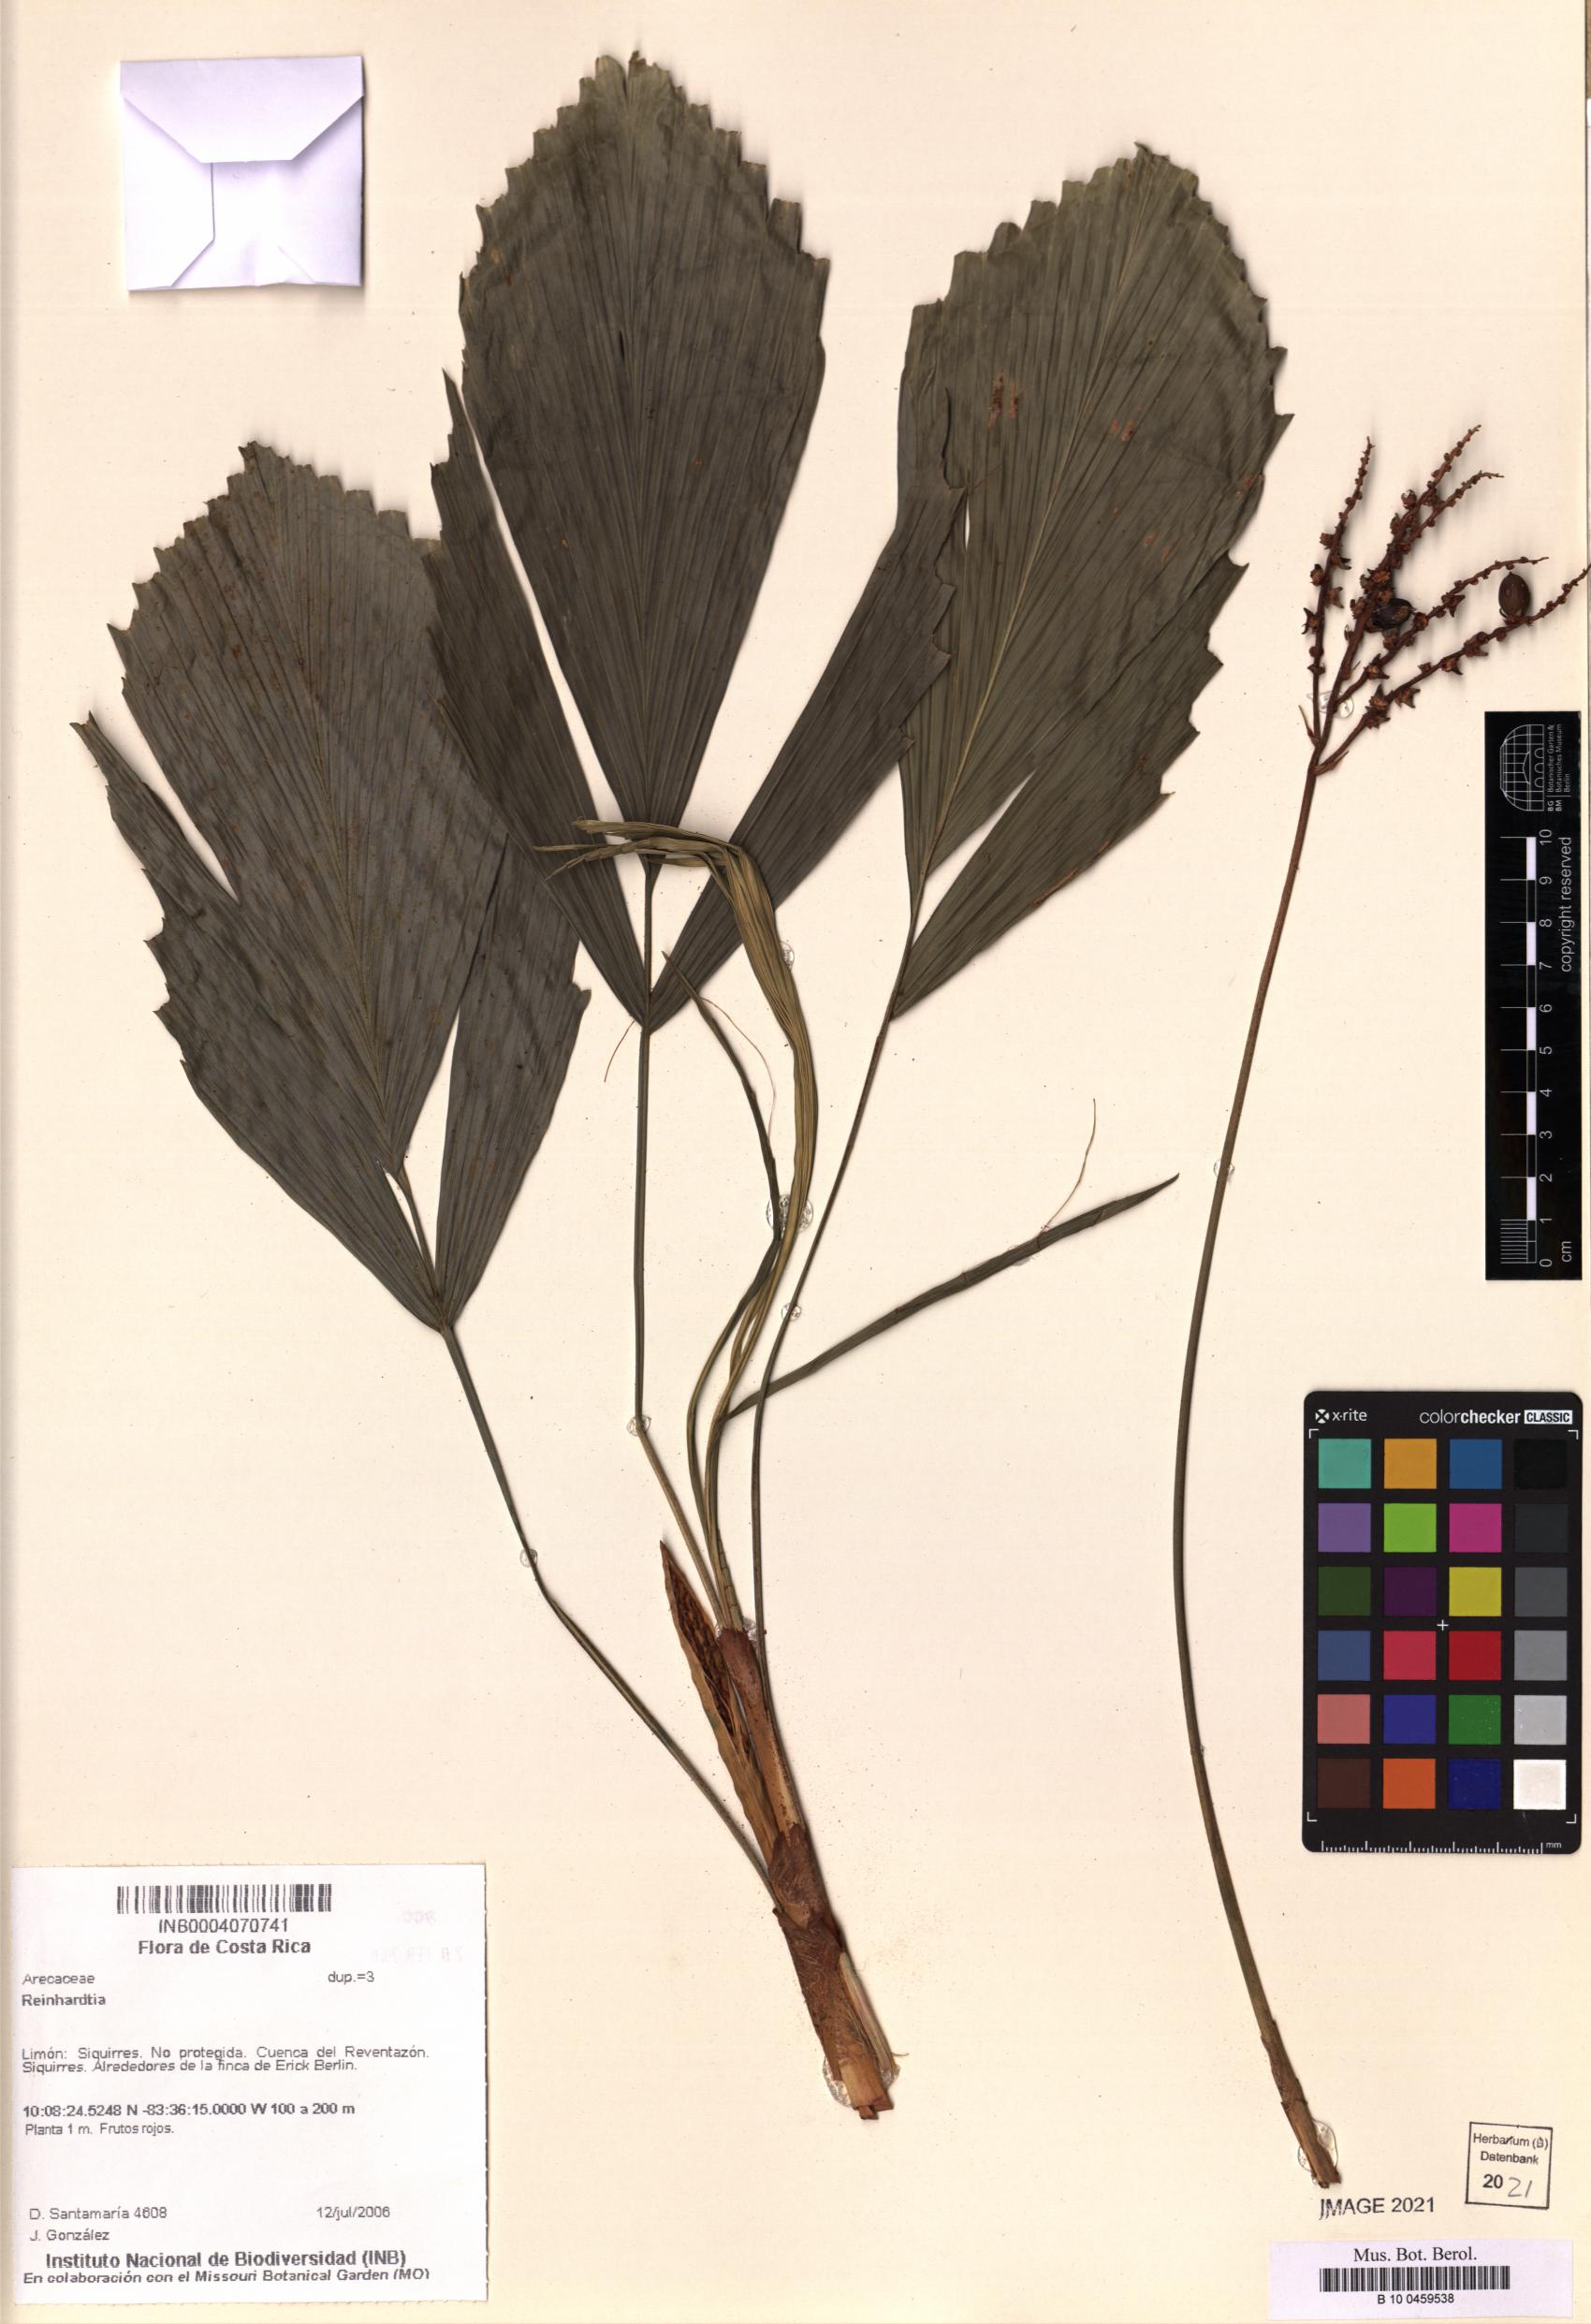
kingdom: Plantae
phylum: Tracheophyta
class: Liliopsida
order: Arecales
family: Arecaceae
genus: Reinhardtia
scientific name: Reinhardtia
